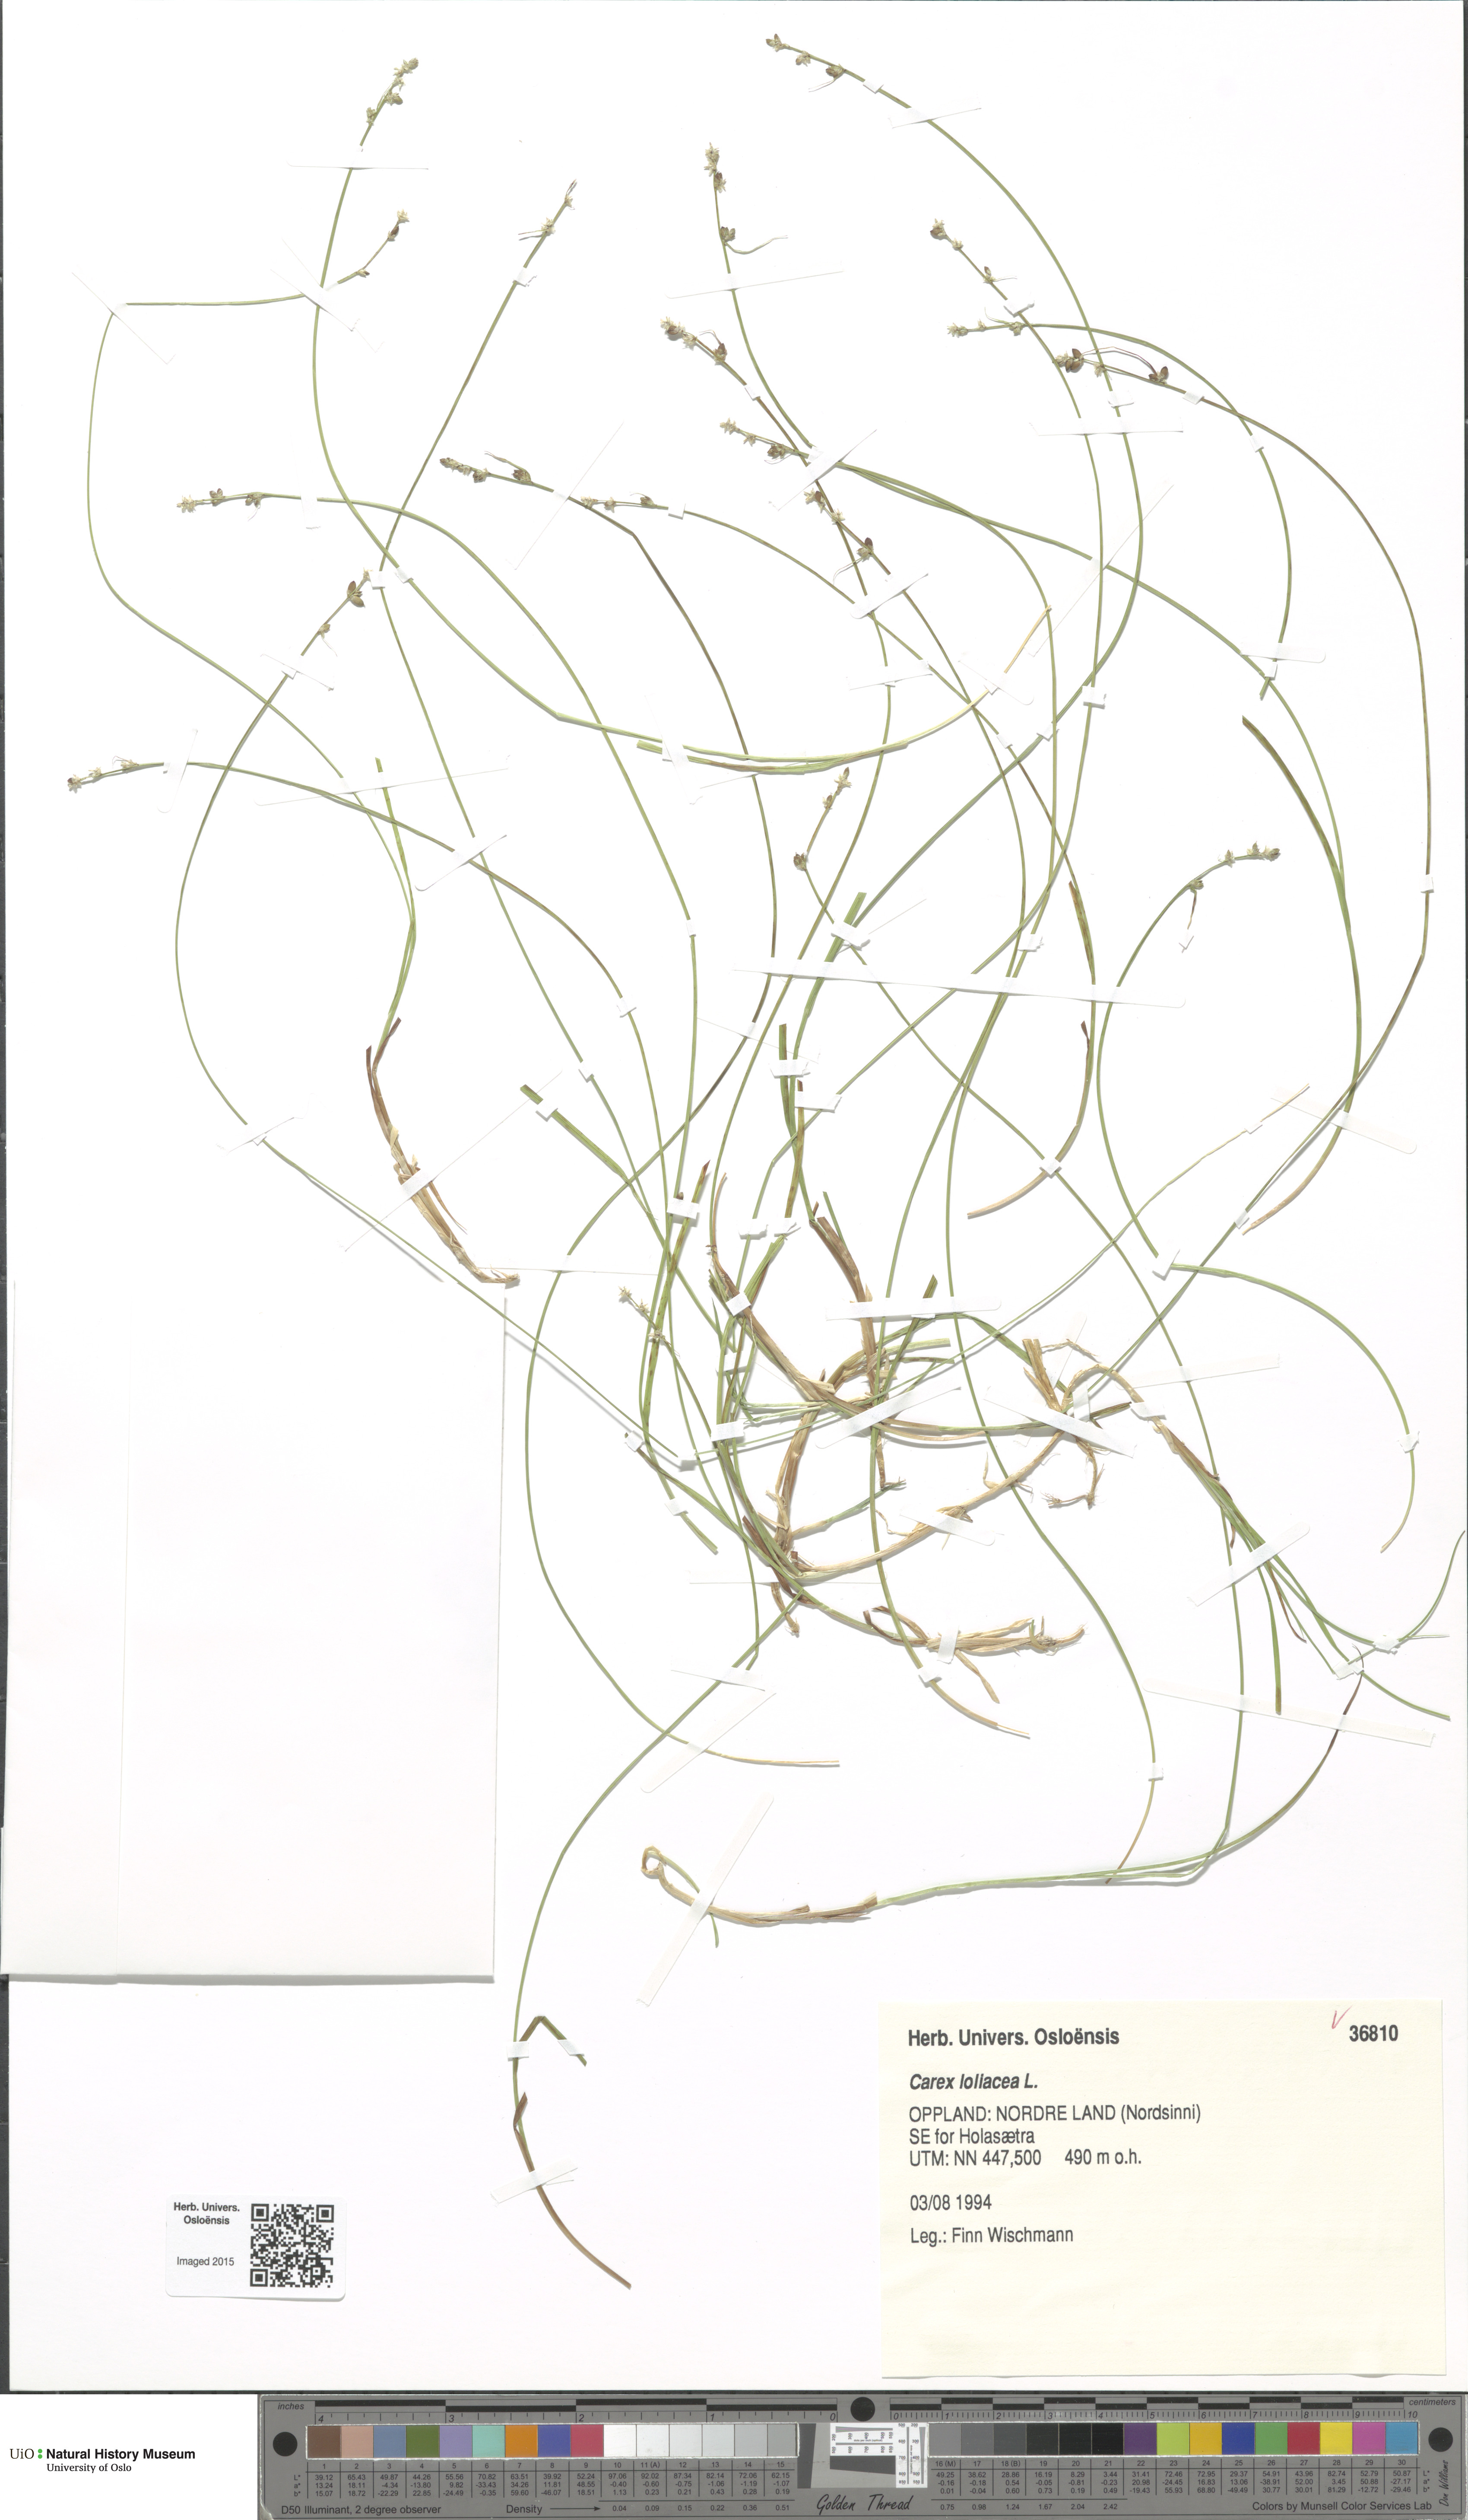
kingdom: Plantae
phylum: Tracheophyta
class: Liliopsida
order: Poales
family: Cyperaceae
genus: Carex
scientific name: Carex loliacea
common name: Ryegrass sedge
